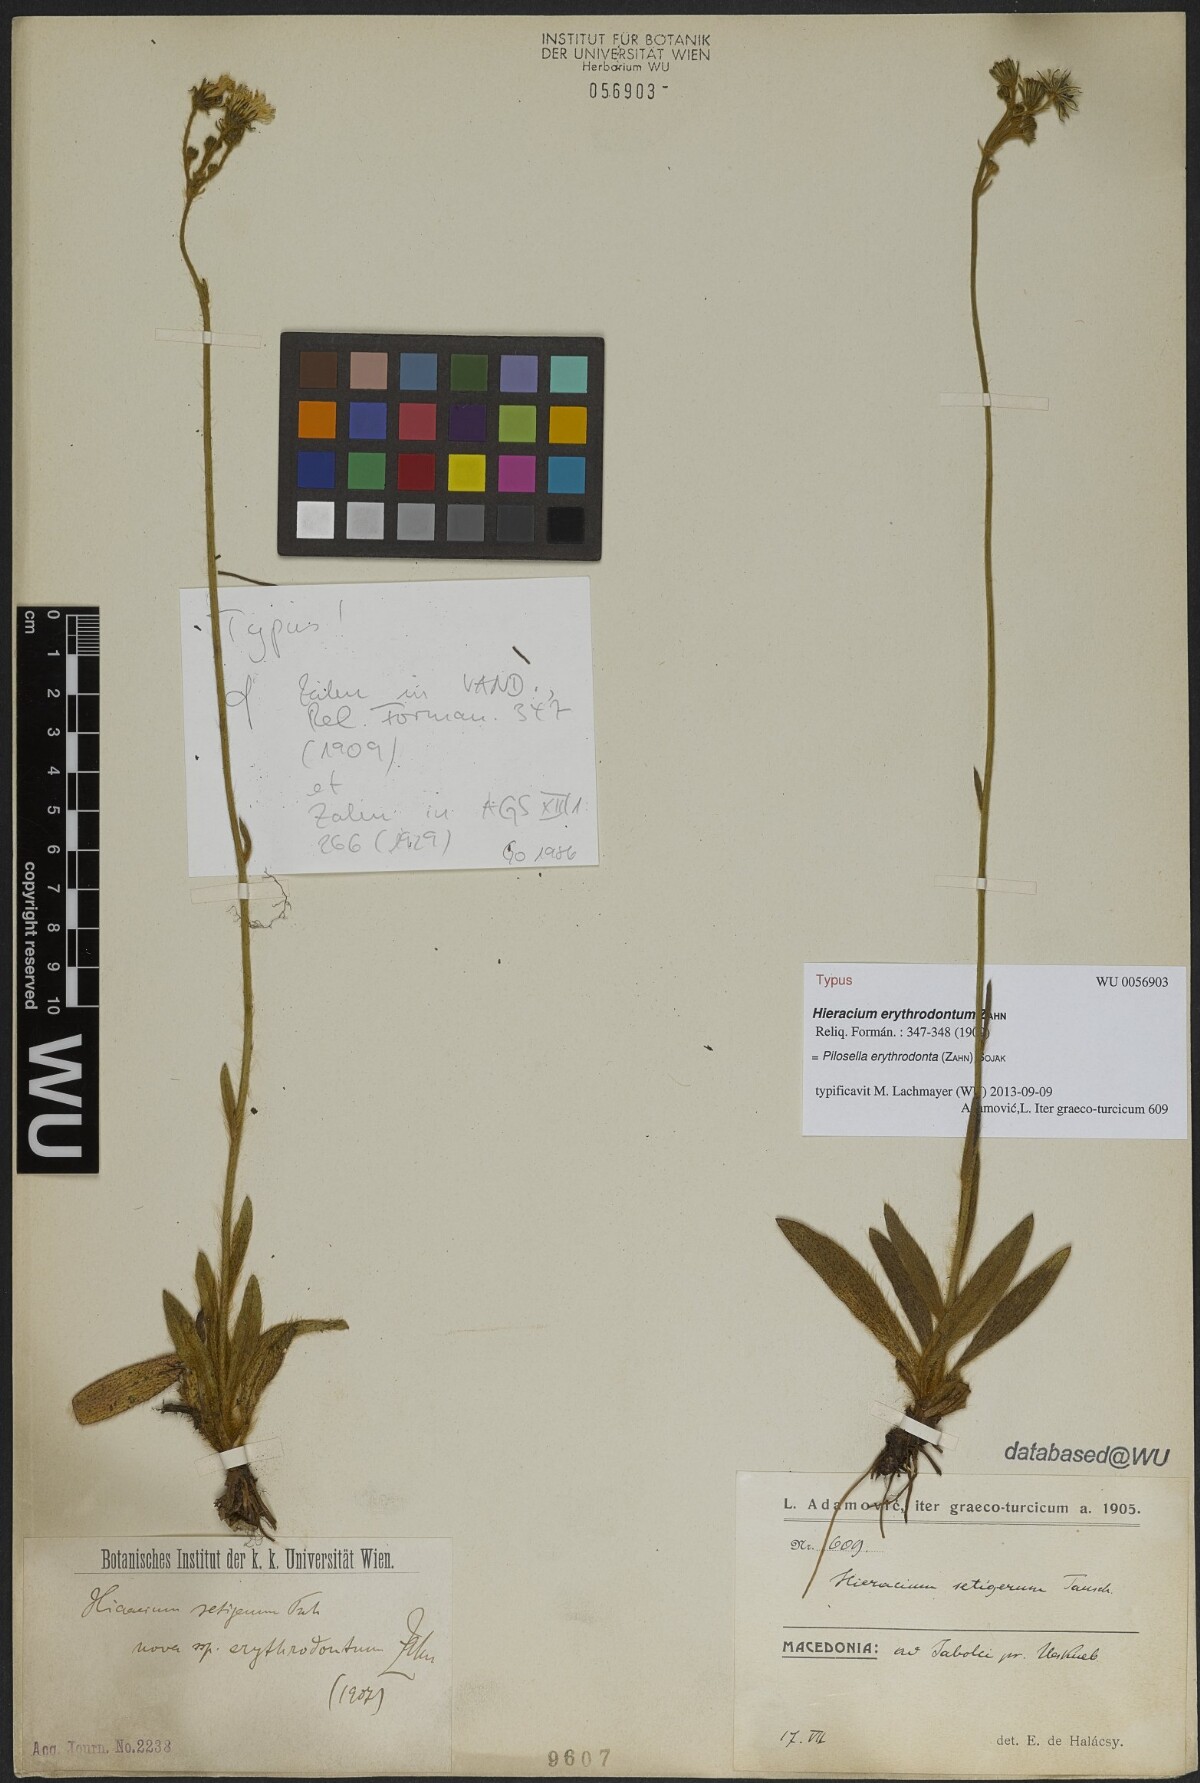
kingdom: Plantae
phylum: Tracheophyta
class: Magnoliopsida
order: Asterales
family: Asteraceae
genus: Pilosella
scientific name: Pilosella erythrodonta
